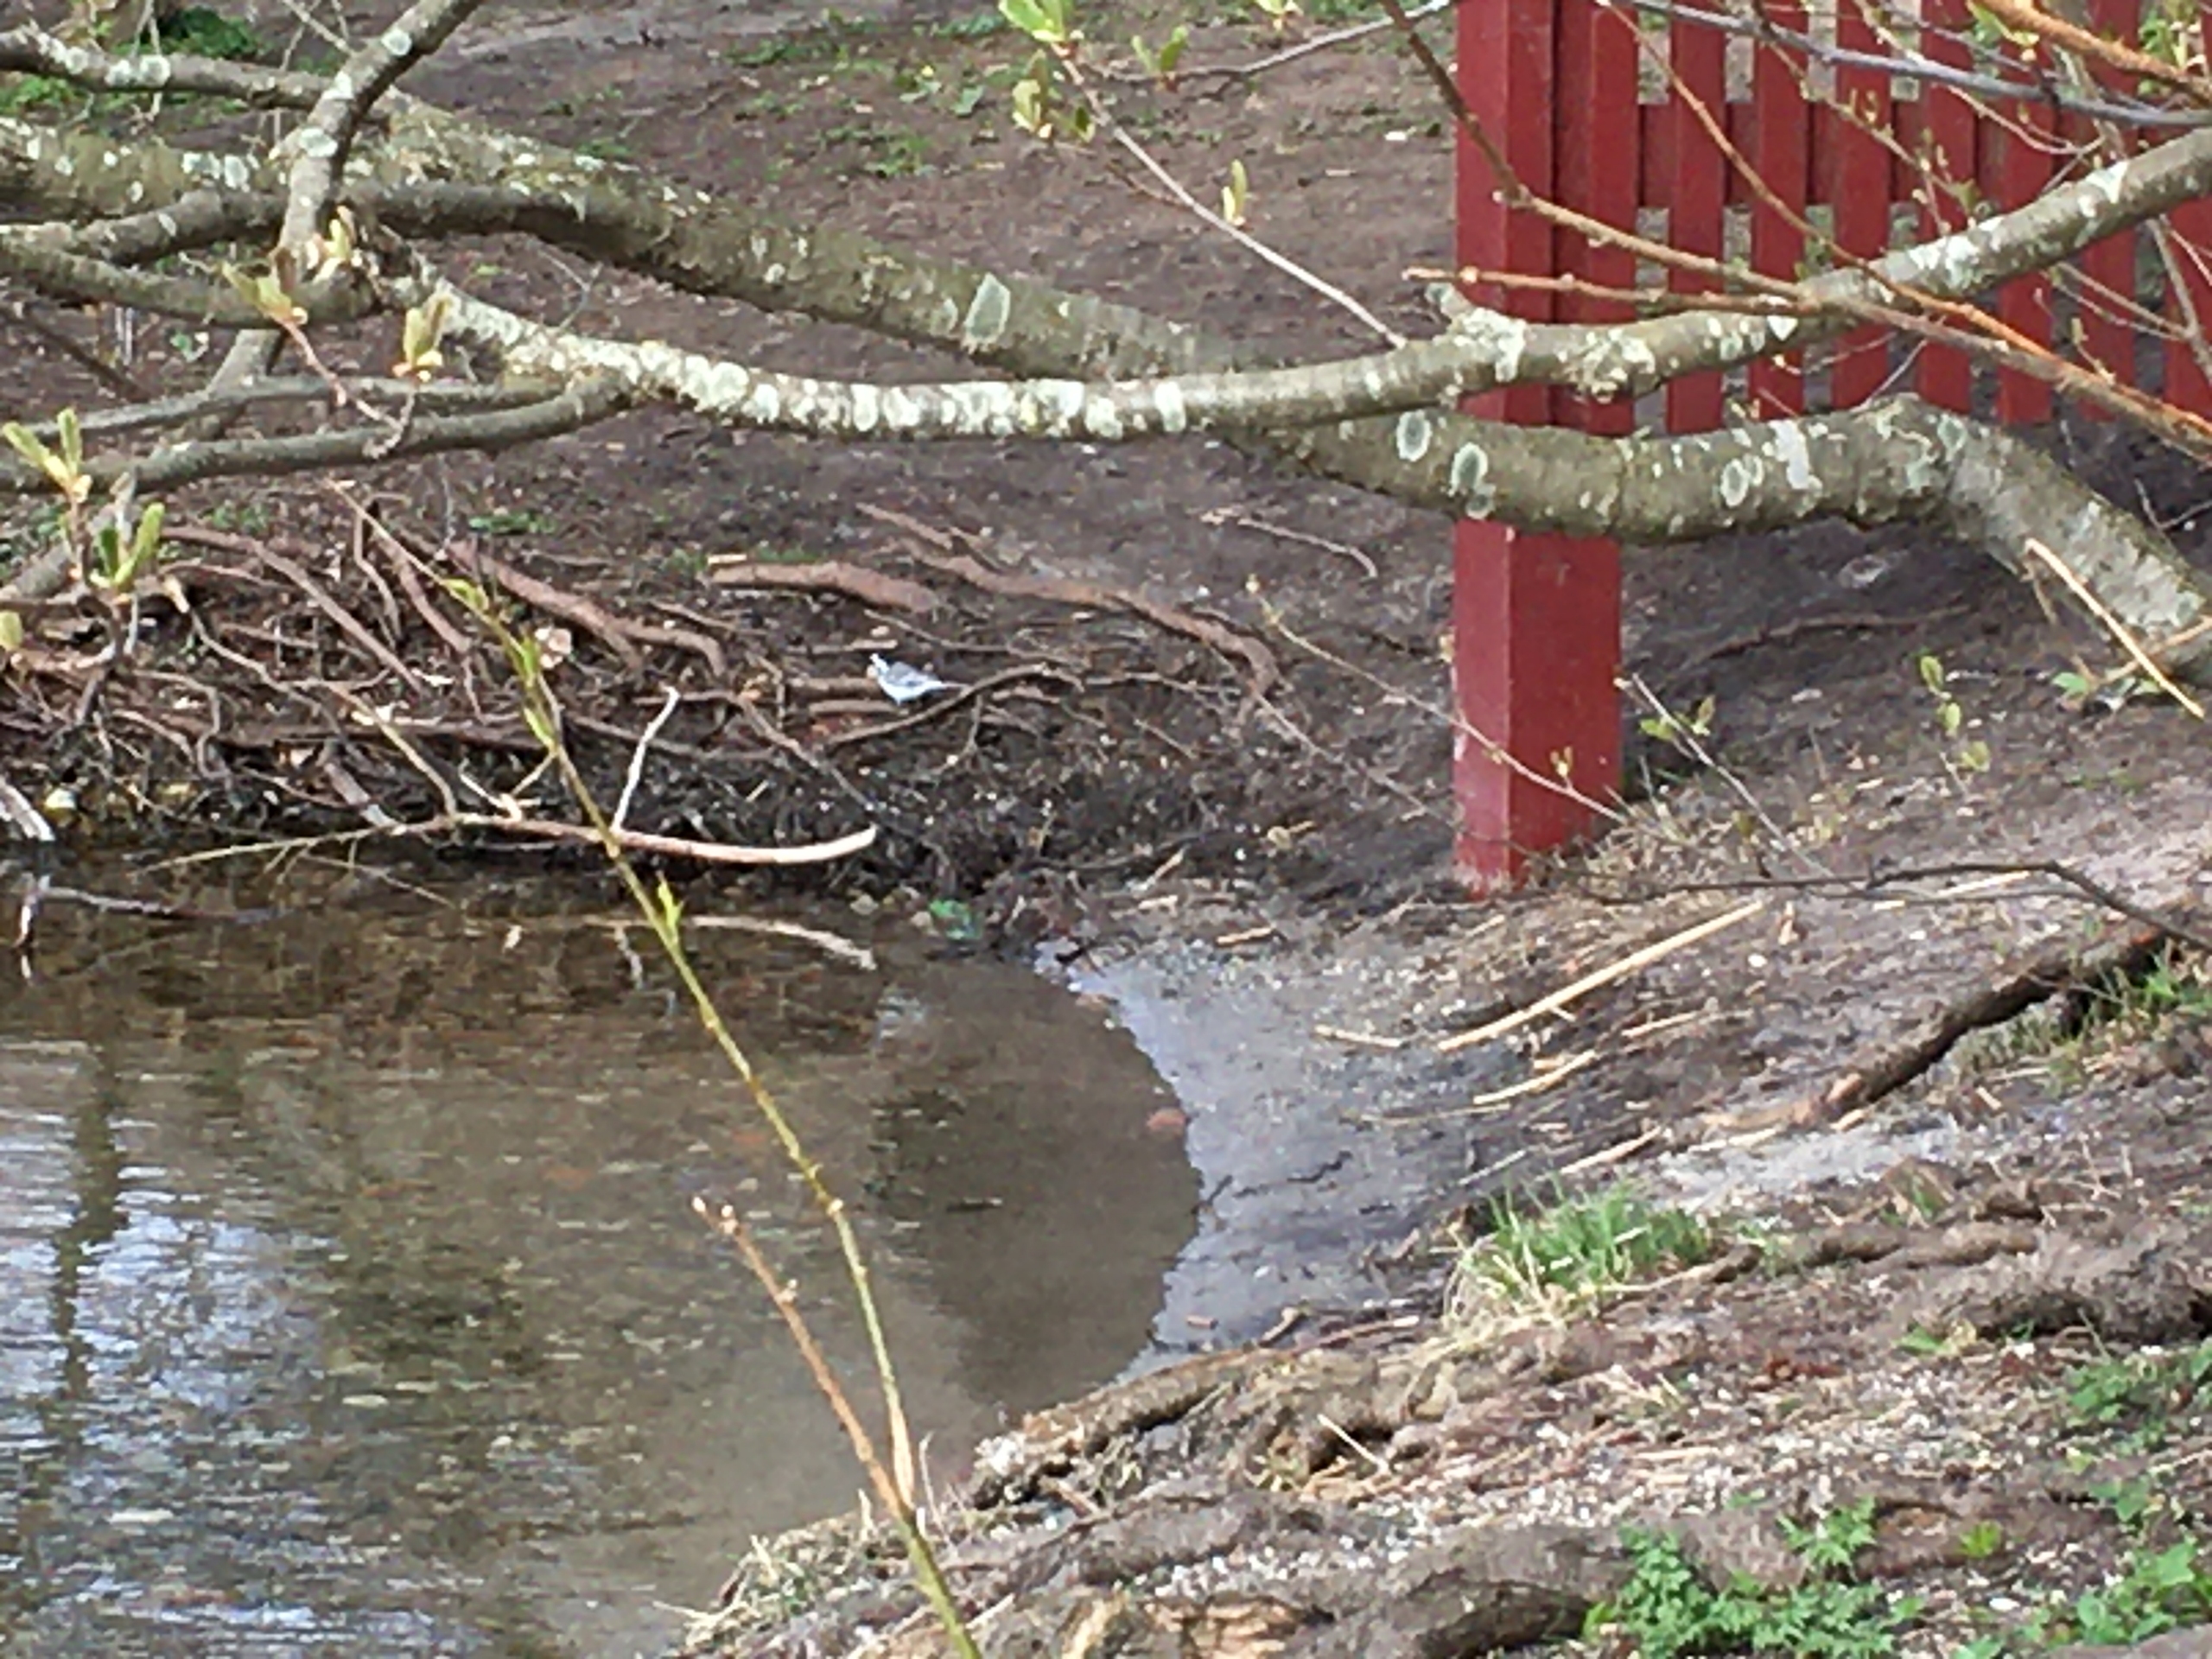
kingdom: Animalia
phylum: Chordata
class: Aves
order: Passeriformes
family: Motacillidae
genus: Motacilla
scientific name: Motacilla alba
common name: Hvid vipstjert
